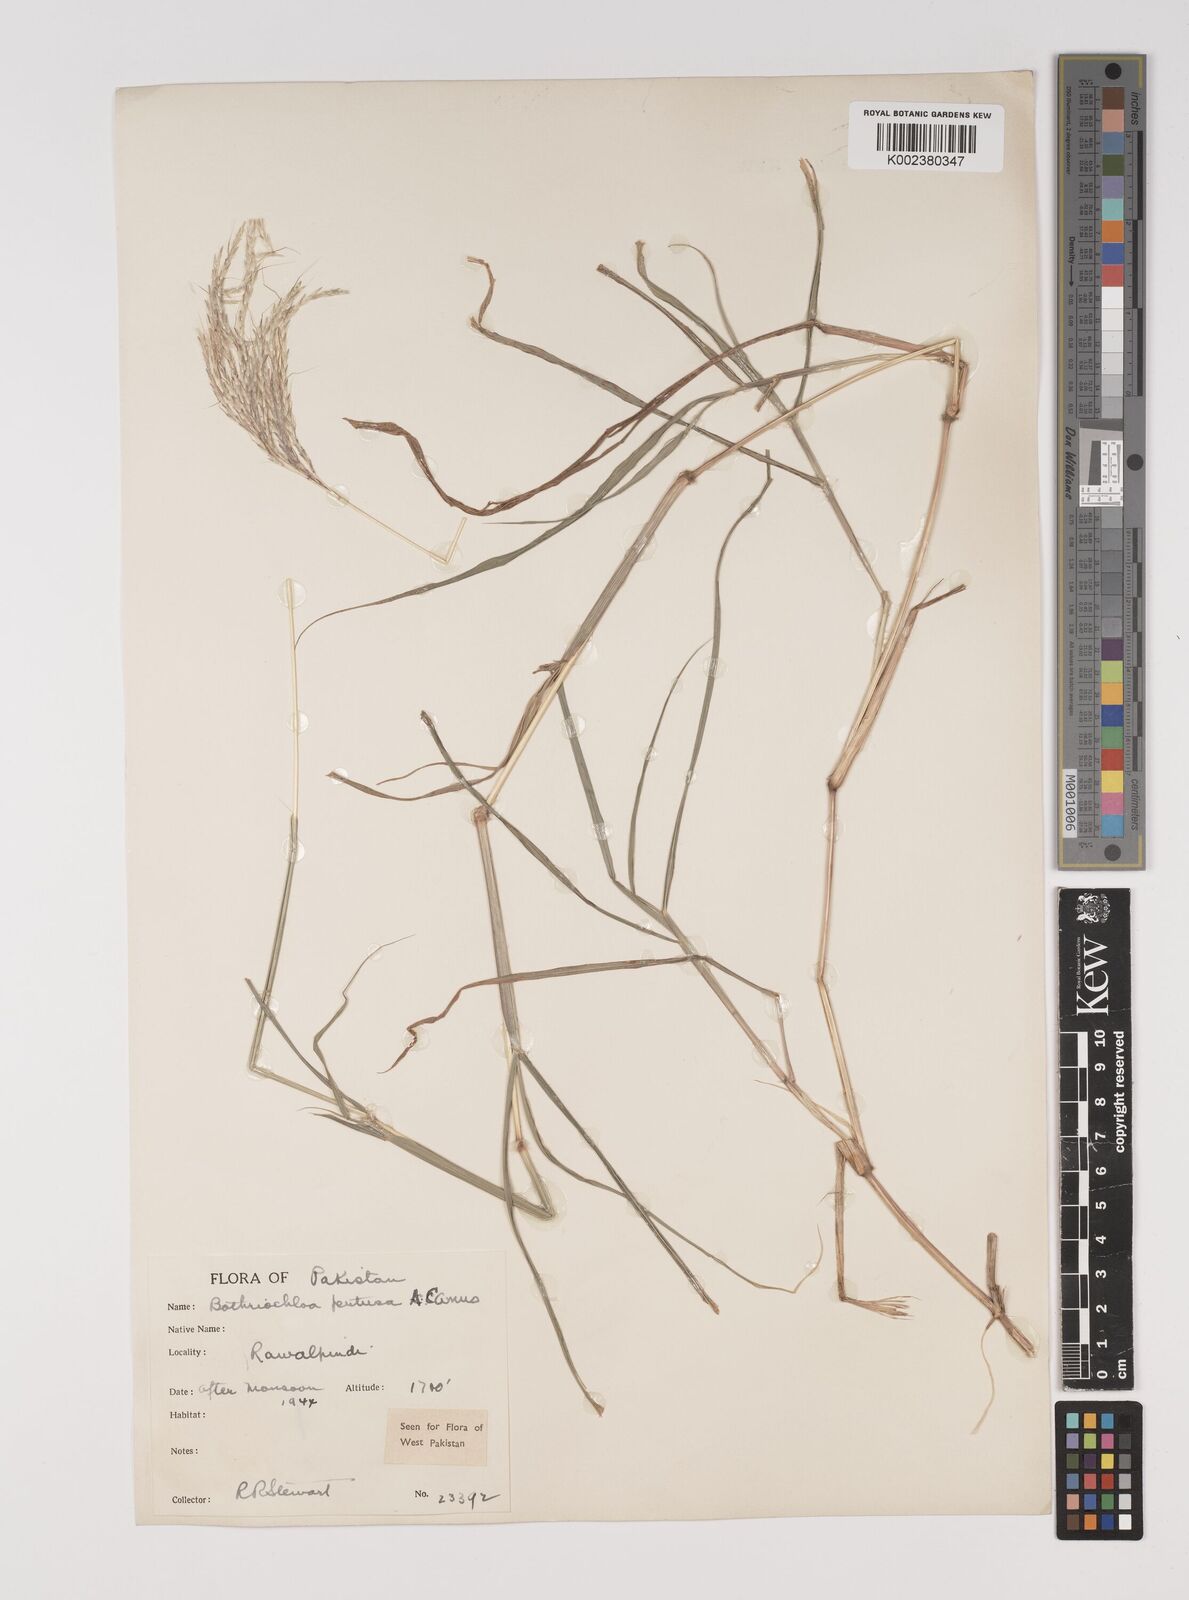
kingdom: Plantae
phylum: Tracheophyta
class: Liliopsida
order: Poales
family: Poaceae
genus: Bothriochloa
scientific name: Bothriochloa pertusa
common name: Pitted beardgrass
